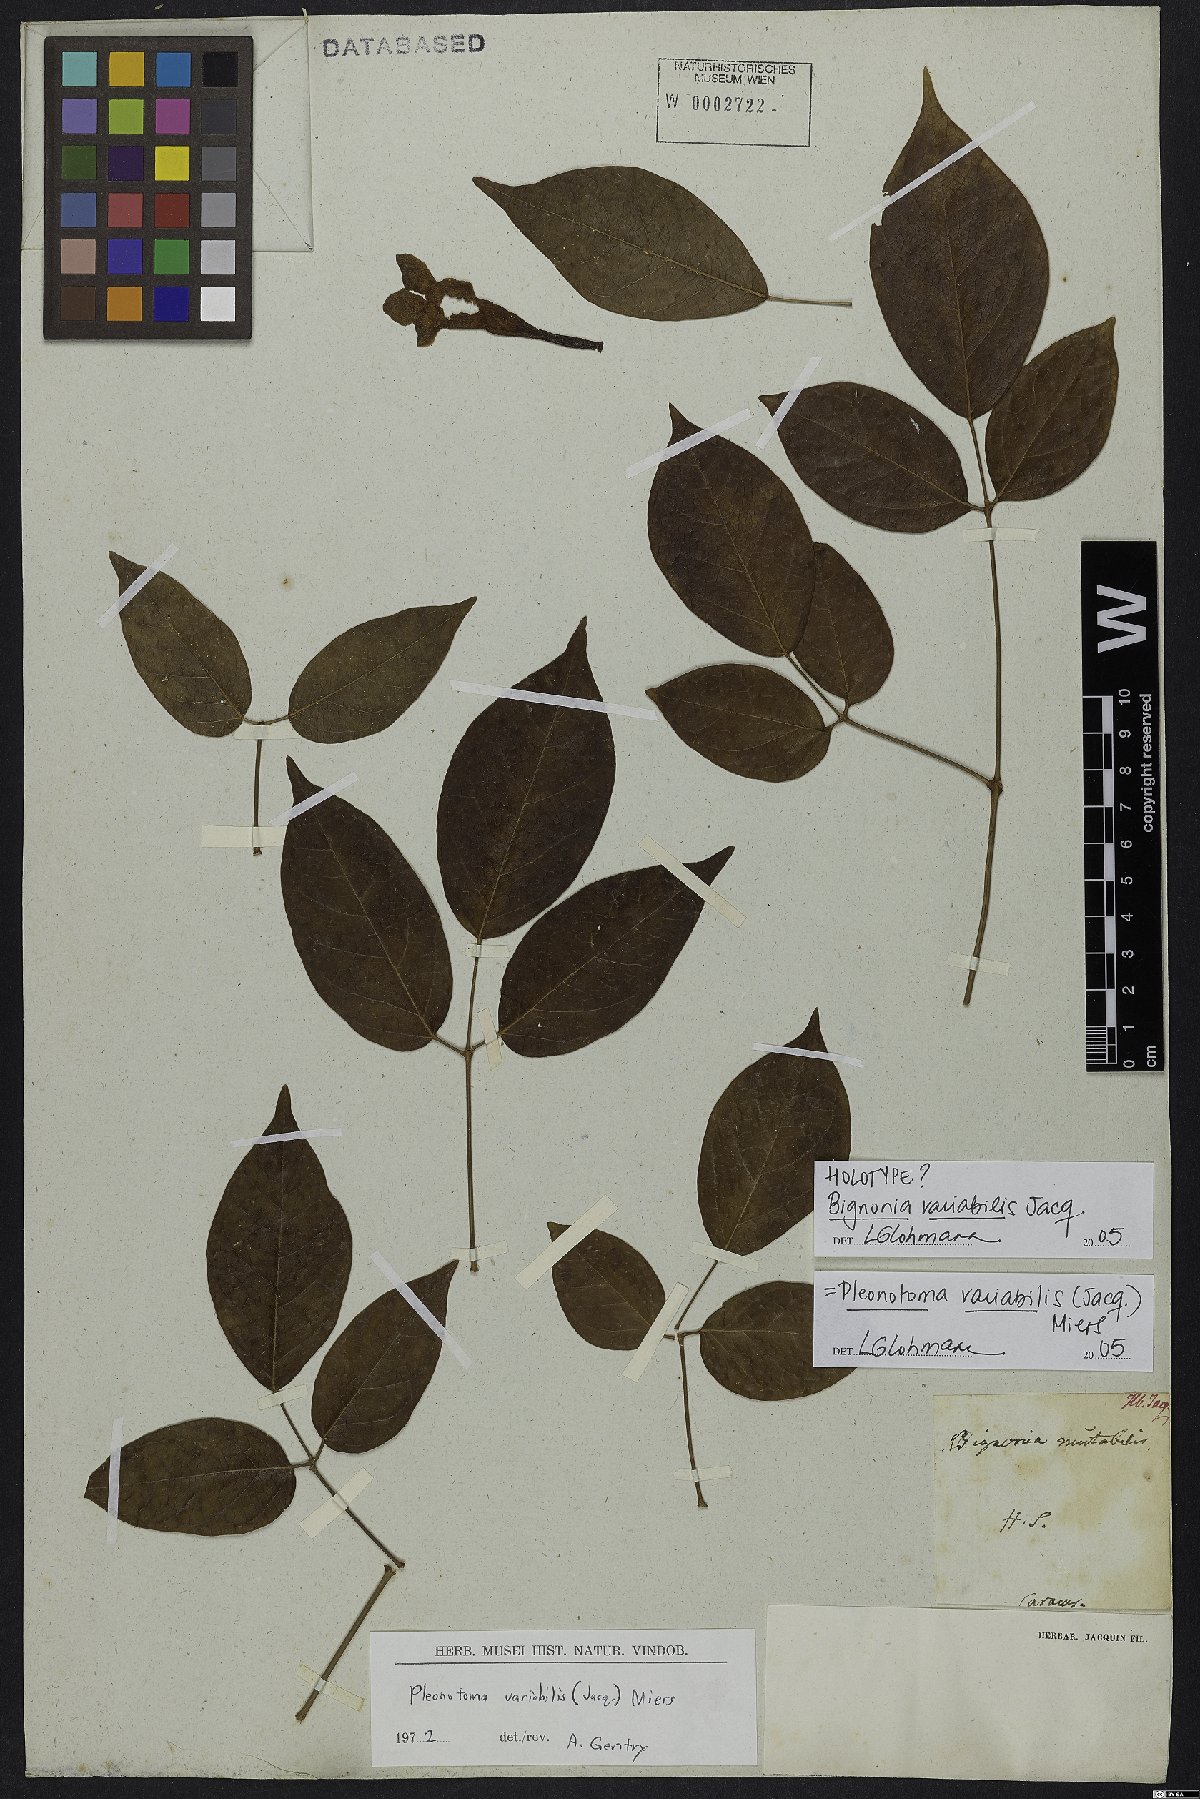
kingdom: Plantae
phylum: Tracheophyta
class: Magnoliopsida
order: Lamiales
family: Bignoniaceae
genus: Pleonotoma
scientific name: Pleonotoma variabilis
